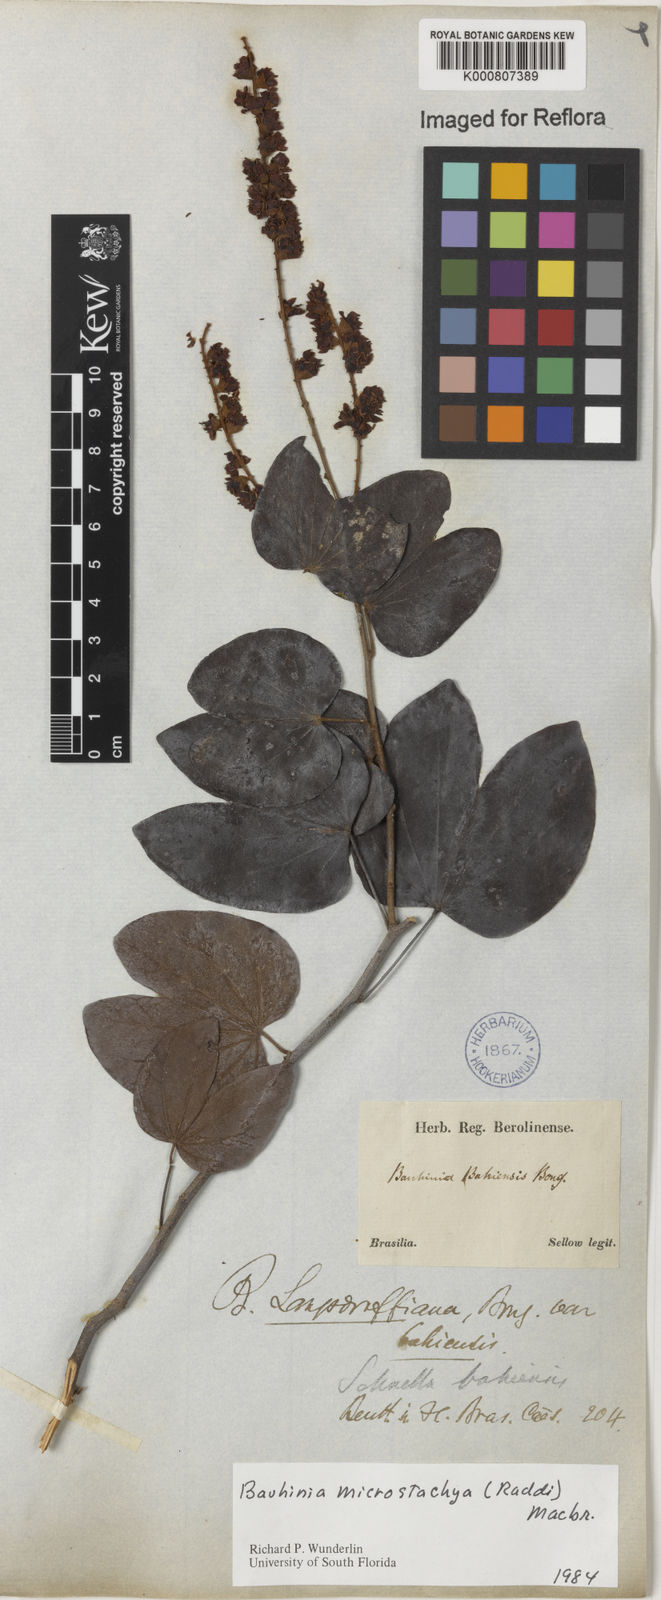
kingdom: Plantae
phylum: Tracheophyta
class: Magnoliopsida
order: Fabales
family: Fabaceae
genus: Schnella
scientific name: Schnella microstachya
